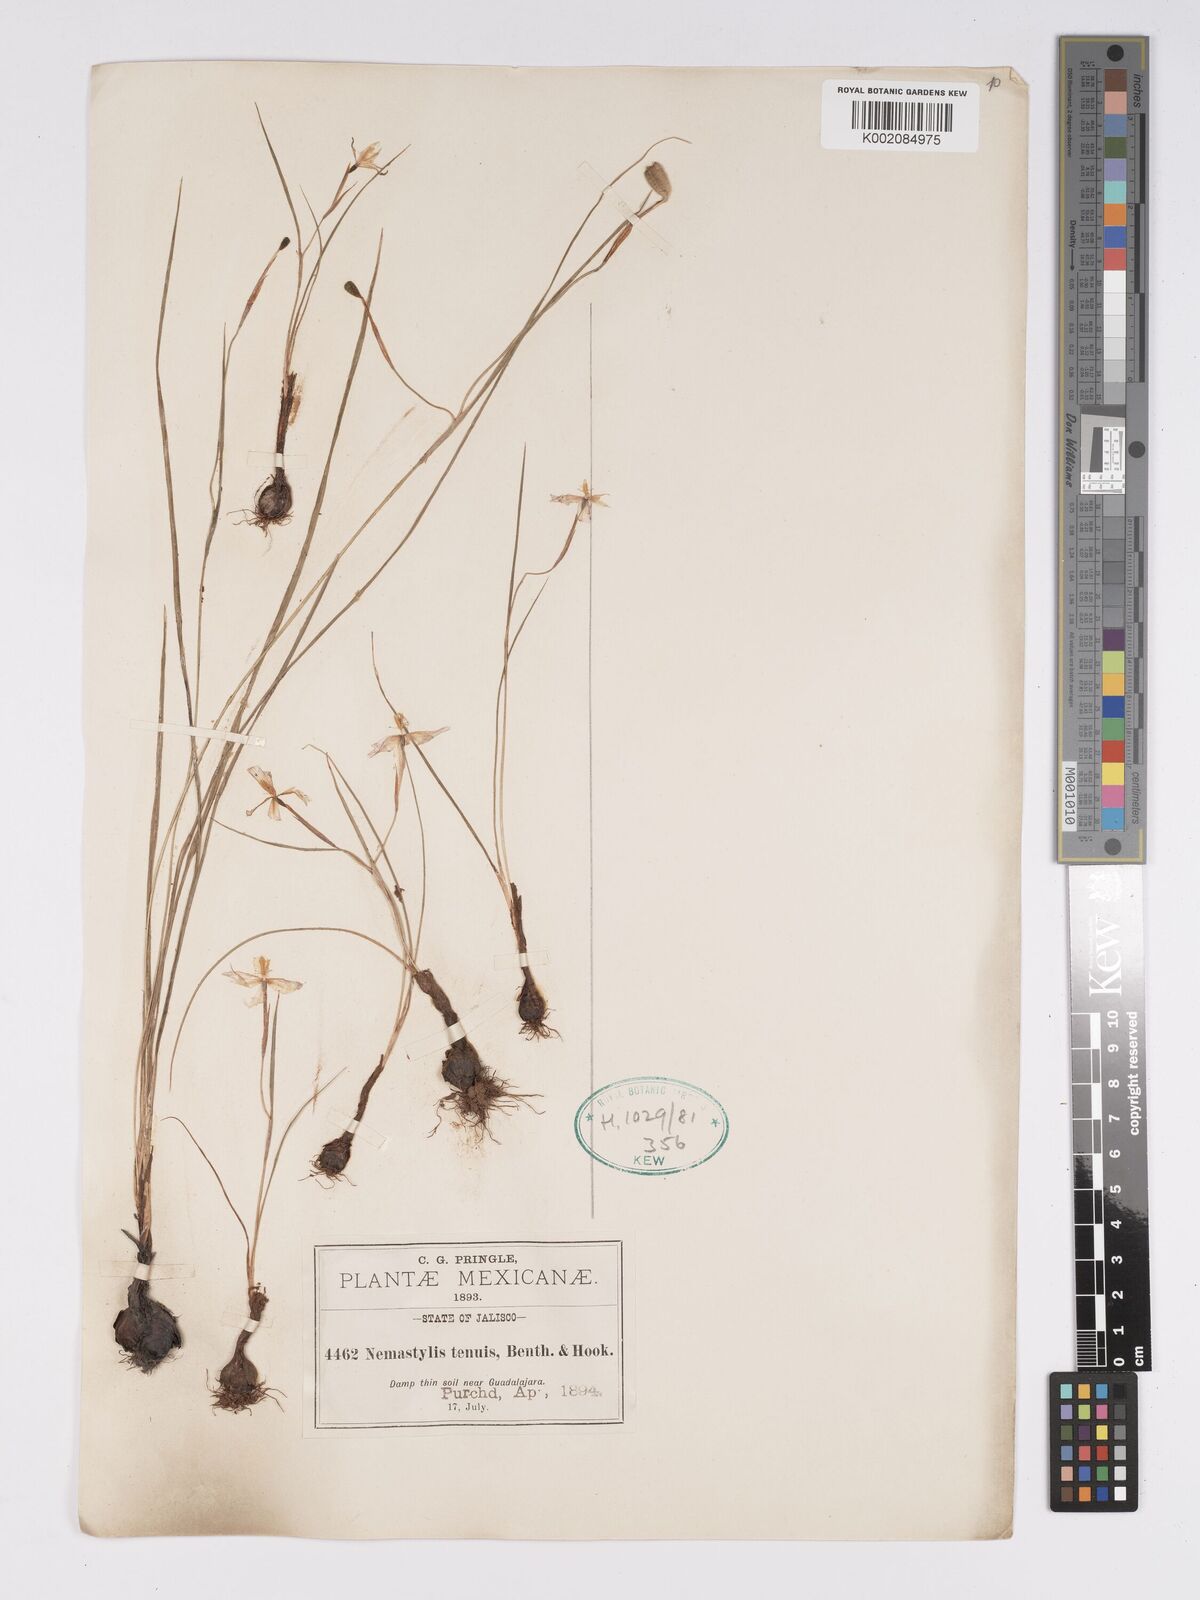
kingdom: Plantae
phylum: Tracheophyta
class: Liliopsida
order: Asparagales
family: Iridaceae
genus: Nemastylis
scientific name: Nemastylis tenuis
